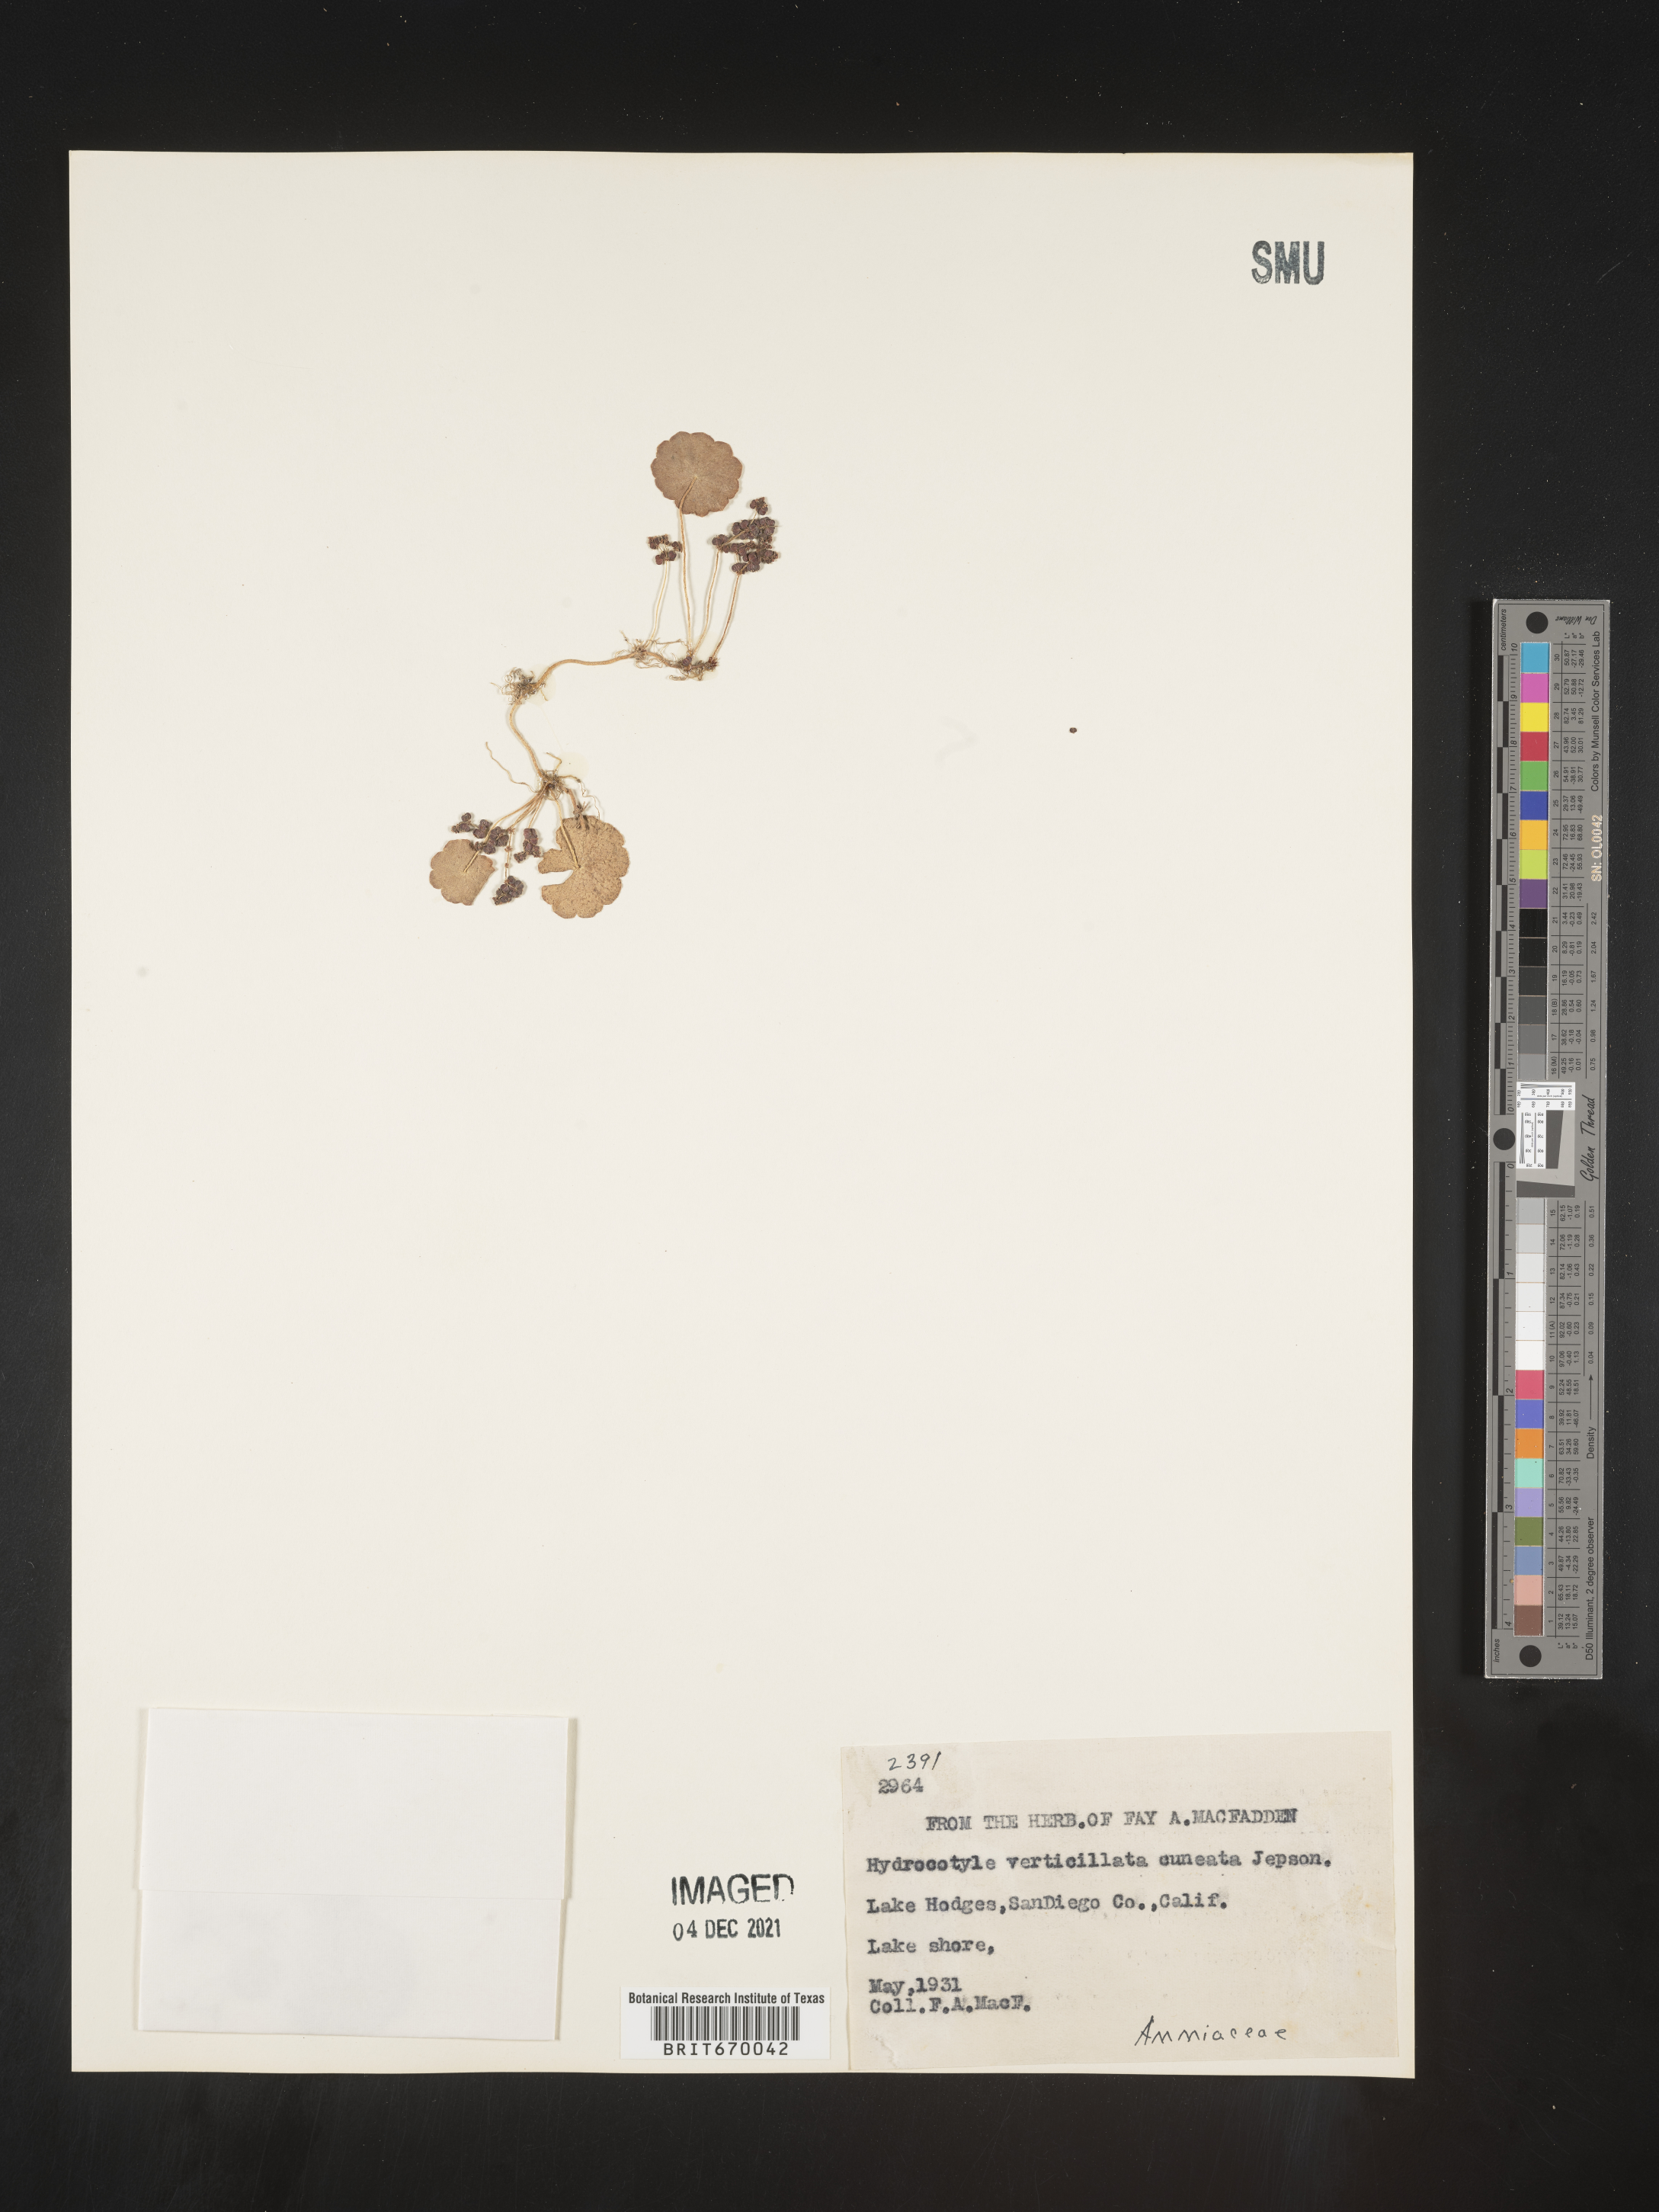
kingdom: Plantae
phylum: Tracheophyta
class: Magnoliopsida
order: Apiales
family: Araliaceae
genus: Hydrocotyle
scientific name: Hydrocotyle verticillata
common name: Whorled marshpennywort
